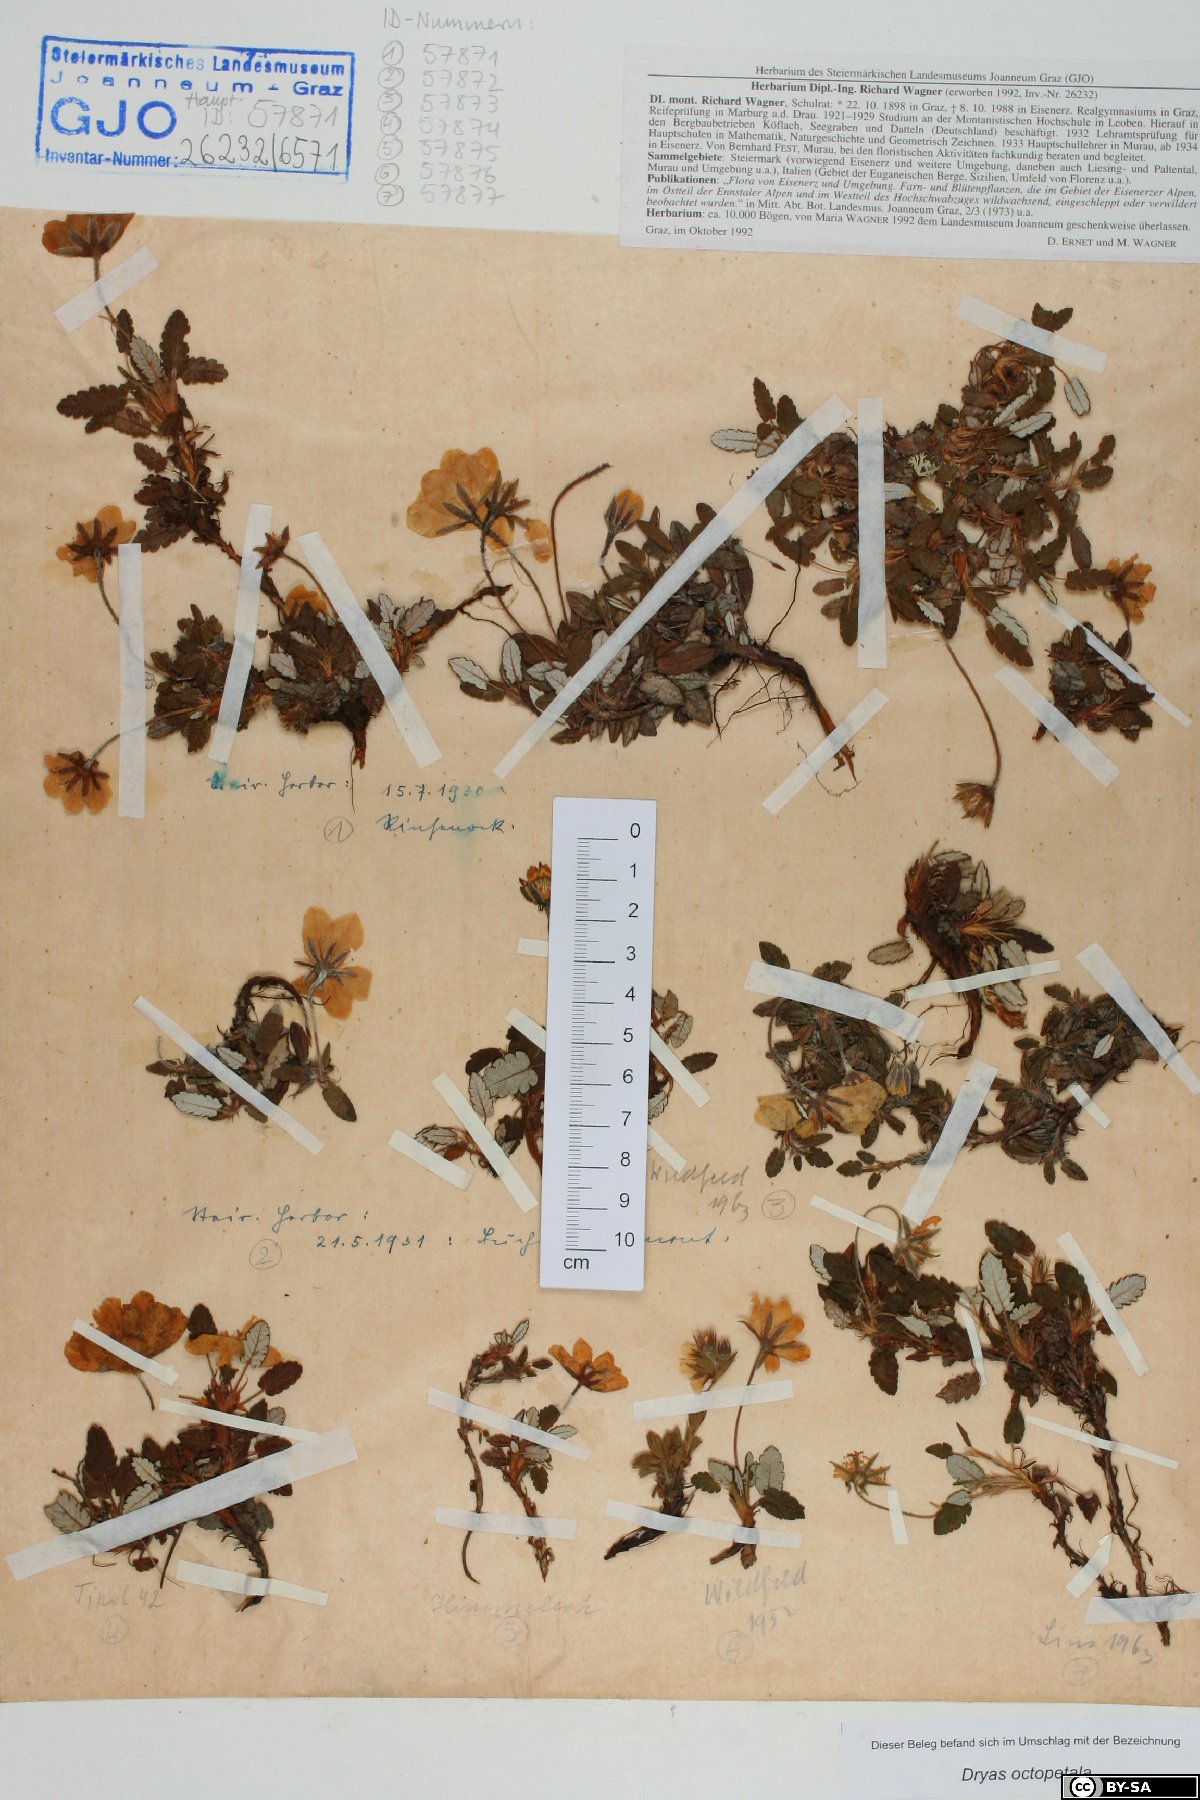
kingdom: Plantae
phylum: Tracheophyta
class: Magnoliopsida
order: Rosales
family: Rosaceae
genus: Dryas
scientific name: Dryas octopetala
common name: Eight-petal mountain-avens
